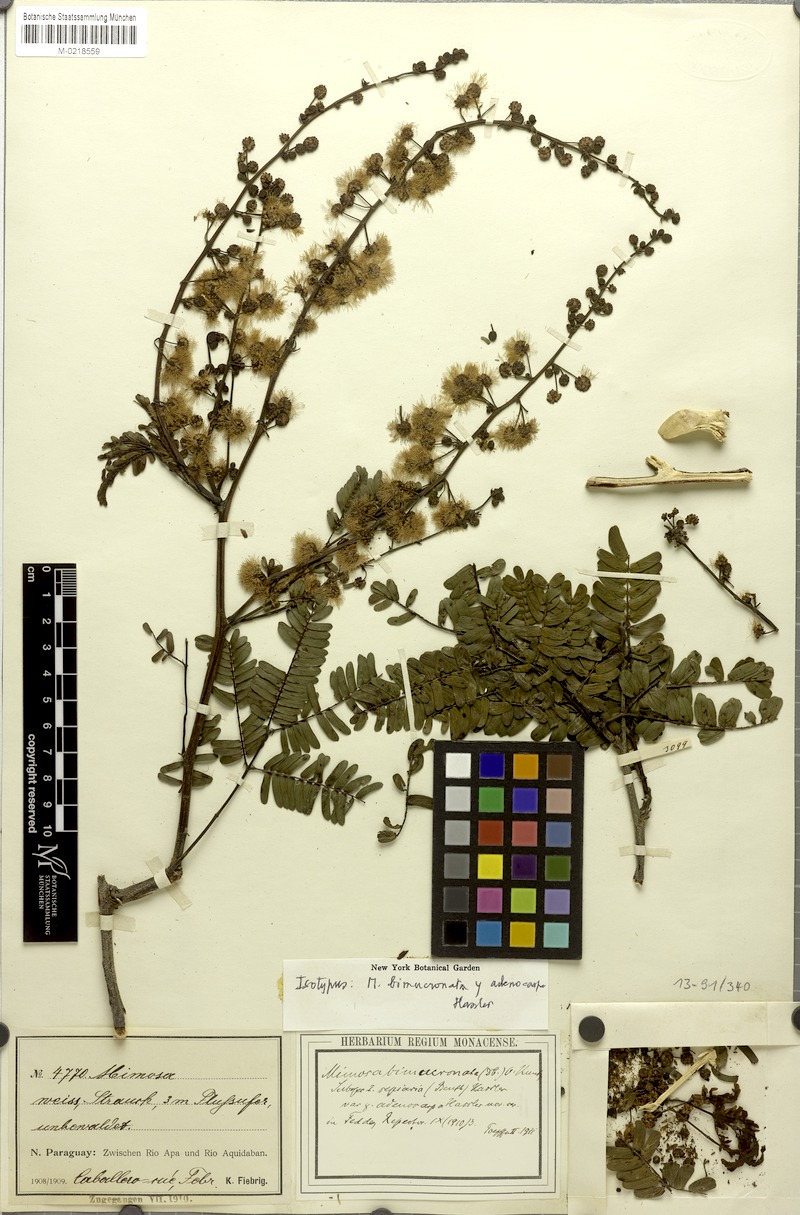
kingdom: Plantae
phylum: Tracheophyta
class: Magnoliopsida
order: Fabales
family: Fabaceae
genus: Mimosa
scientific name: Mimosa bimucronata
